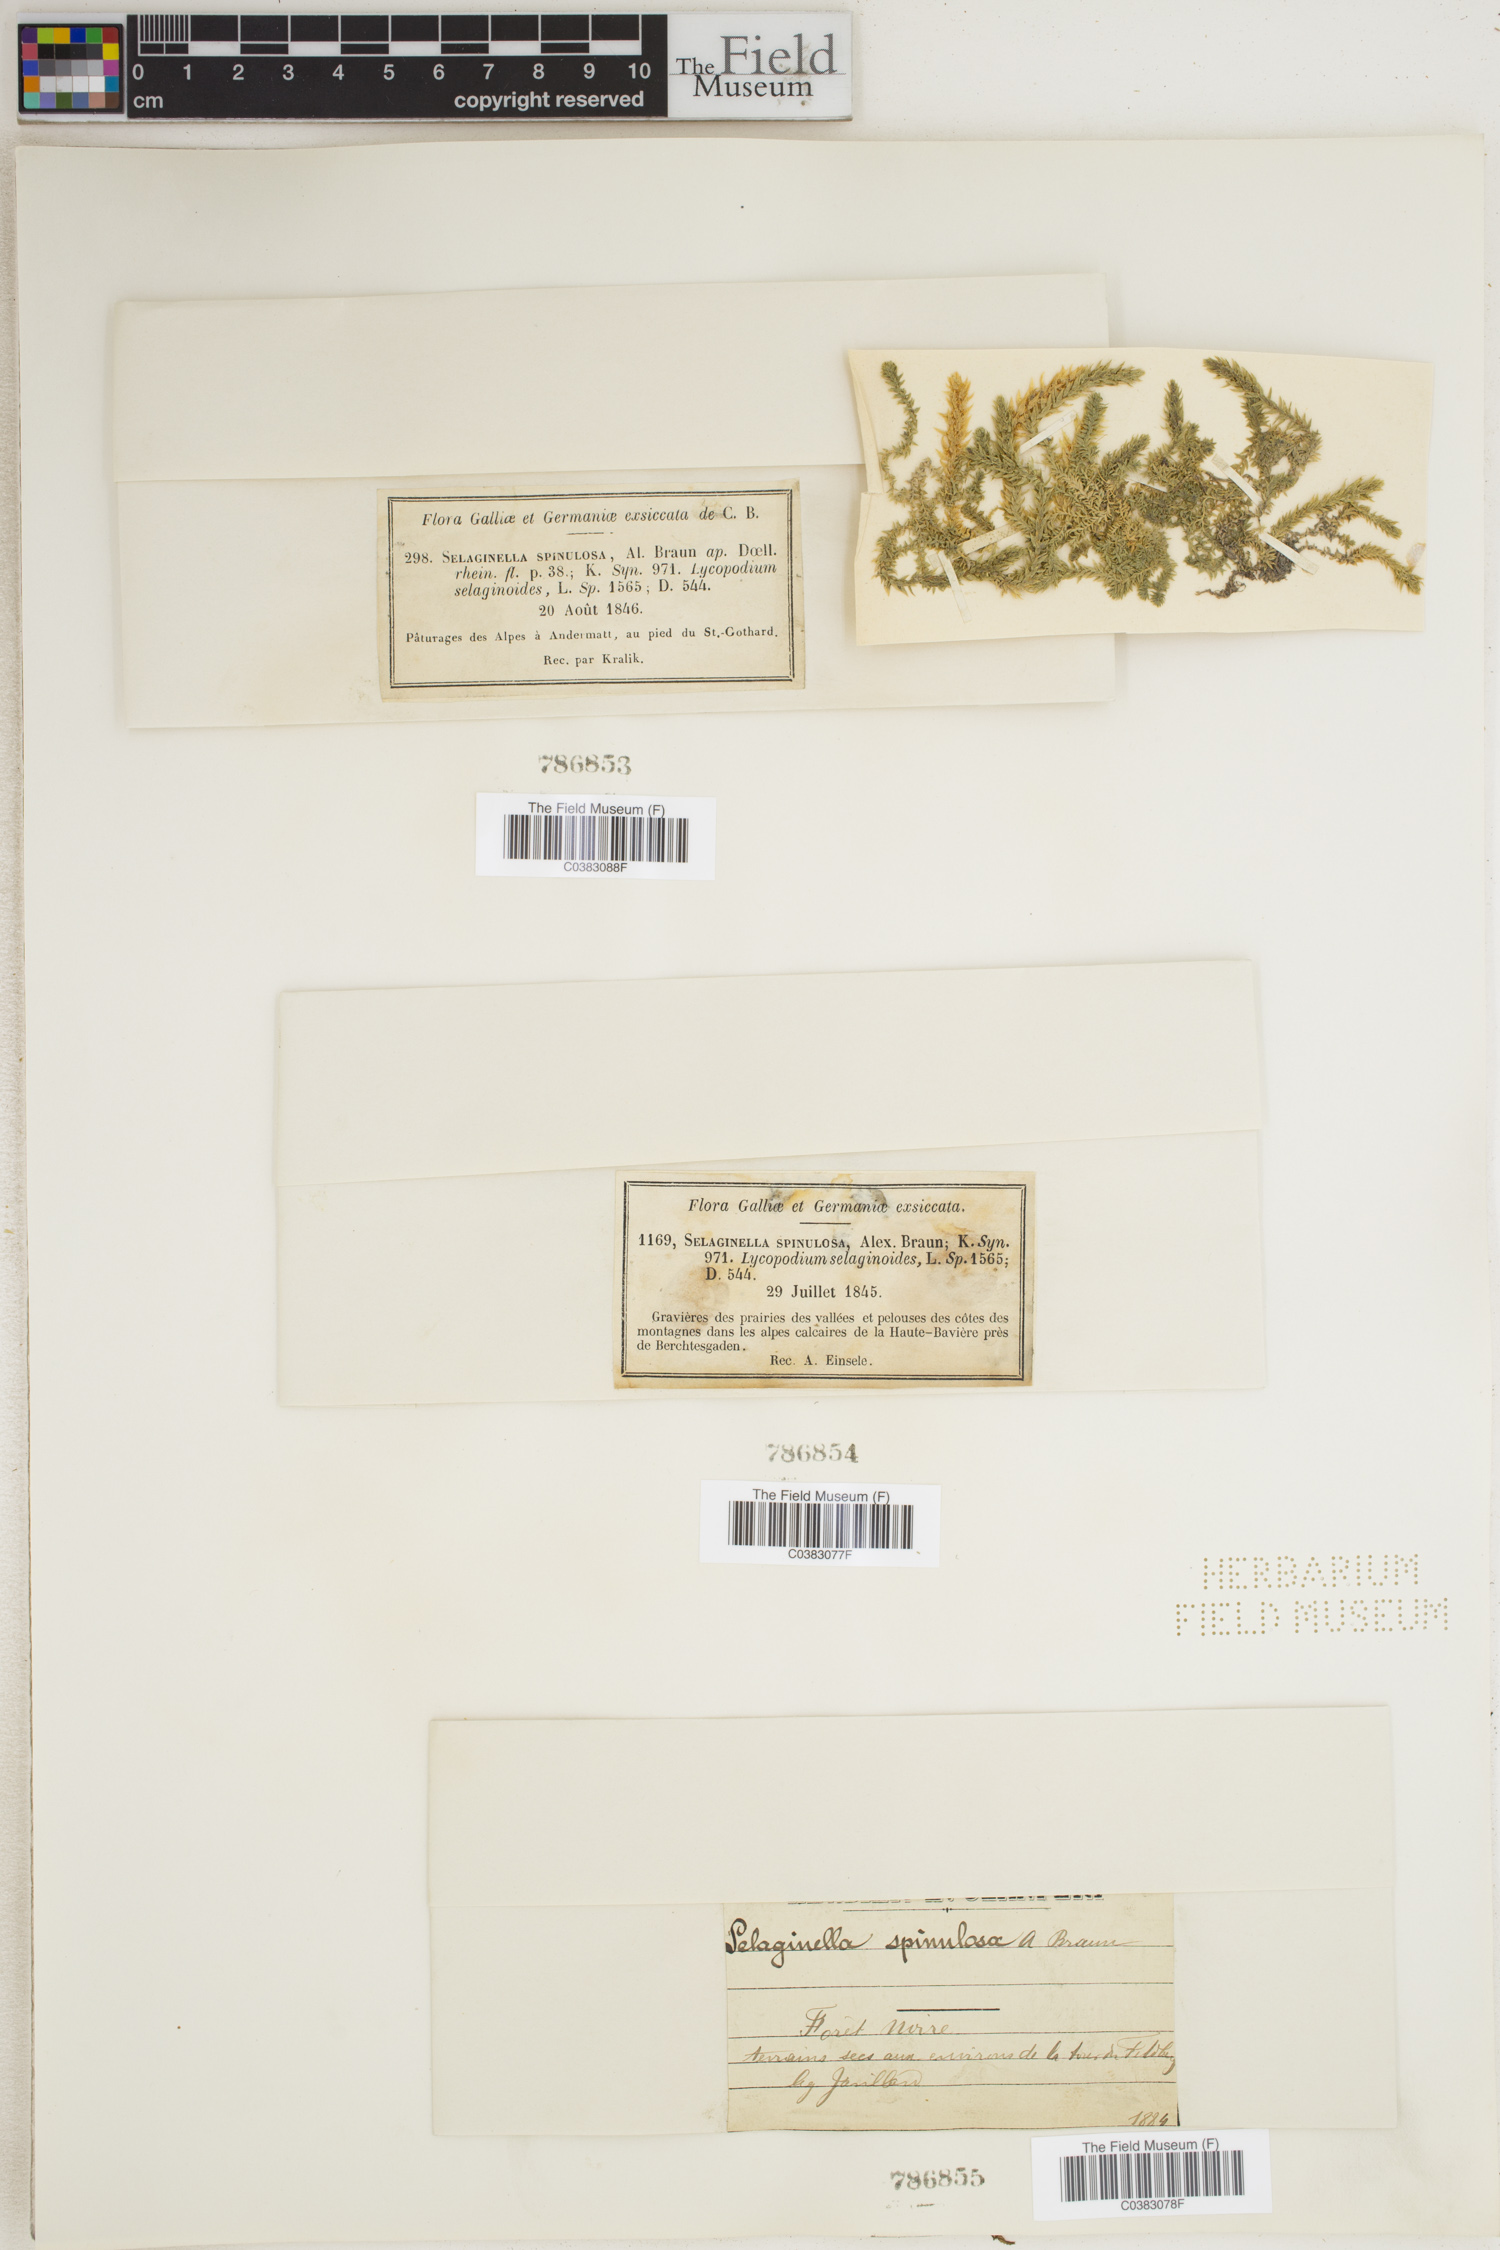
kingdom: Plantae
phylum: Tracheophyta
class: Lycopodiopsida
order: Selaginellales
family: Selaginellaceae
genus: Selaginella
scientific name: Selaginella selaginoides
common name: Prickly mountain-moss
